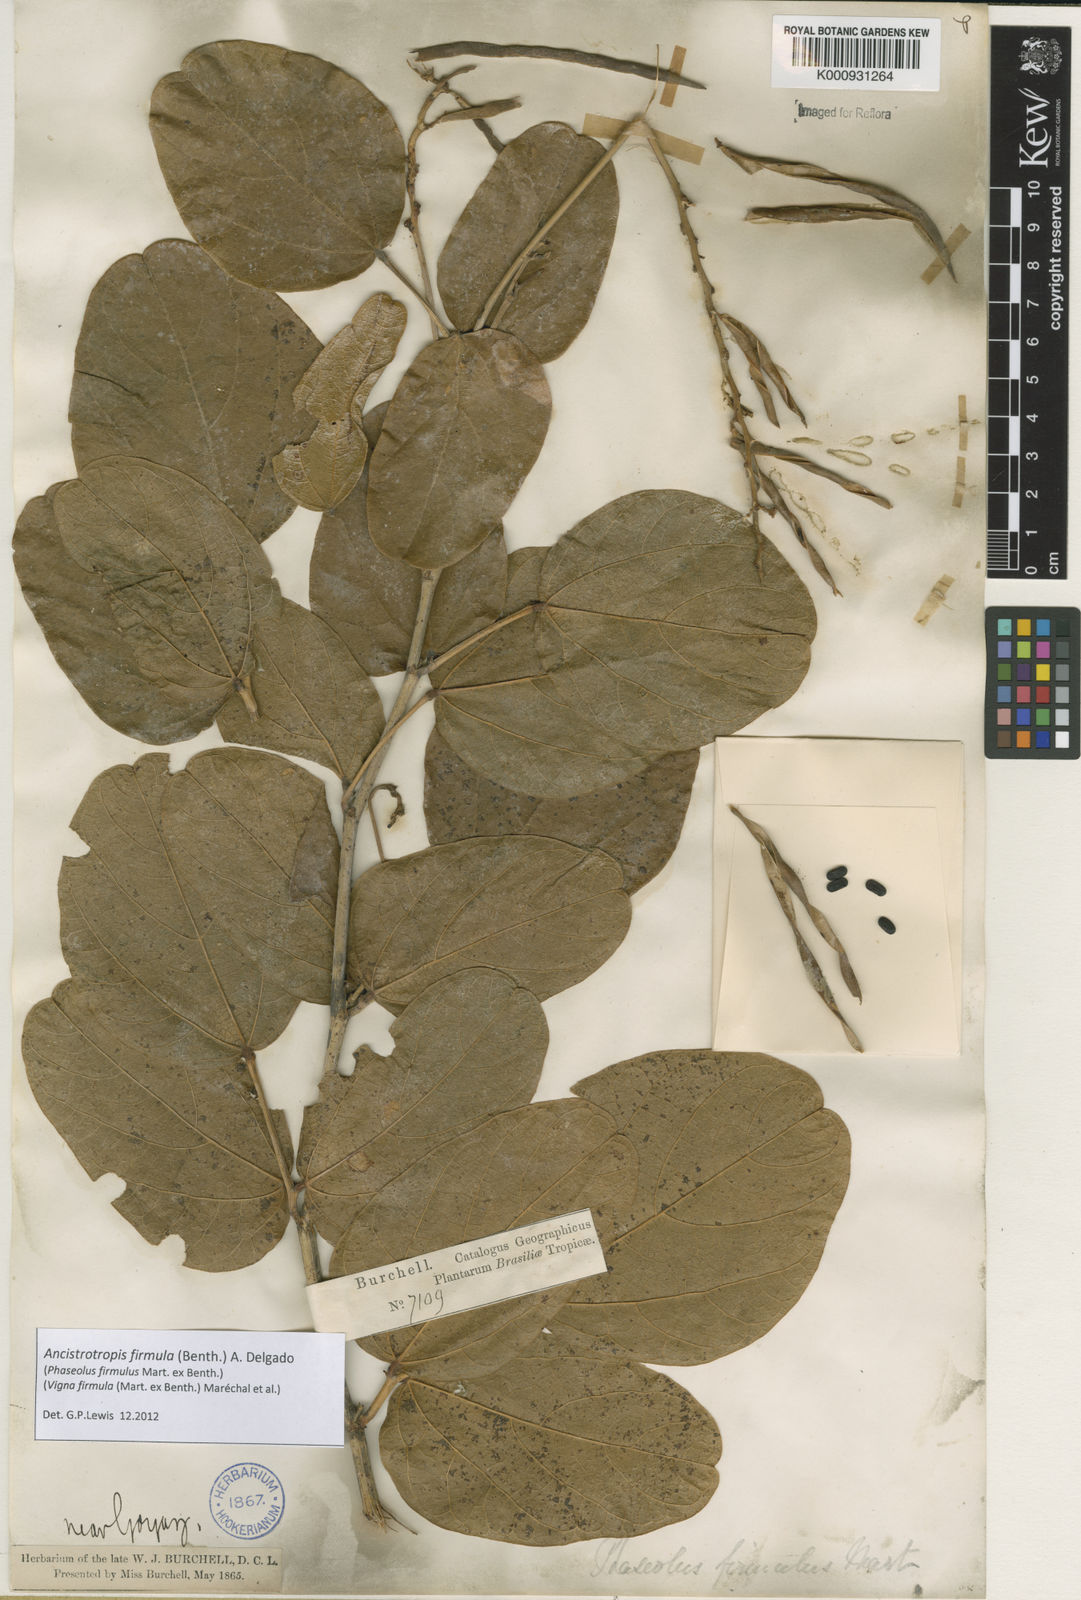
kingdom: Plantae
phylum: Tracheophyta
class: Magnoliopsida
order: Fabales
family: Fabaceae
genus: Ancistrotropis
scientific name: Ancistrotropis firmula
